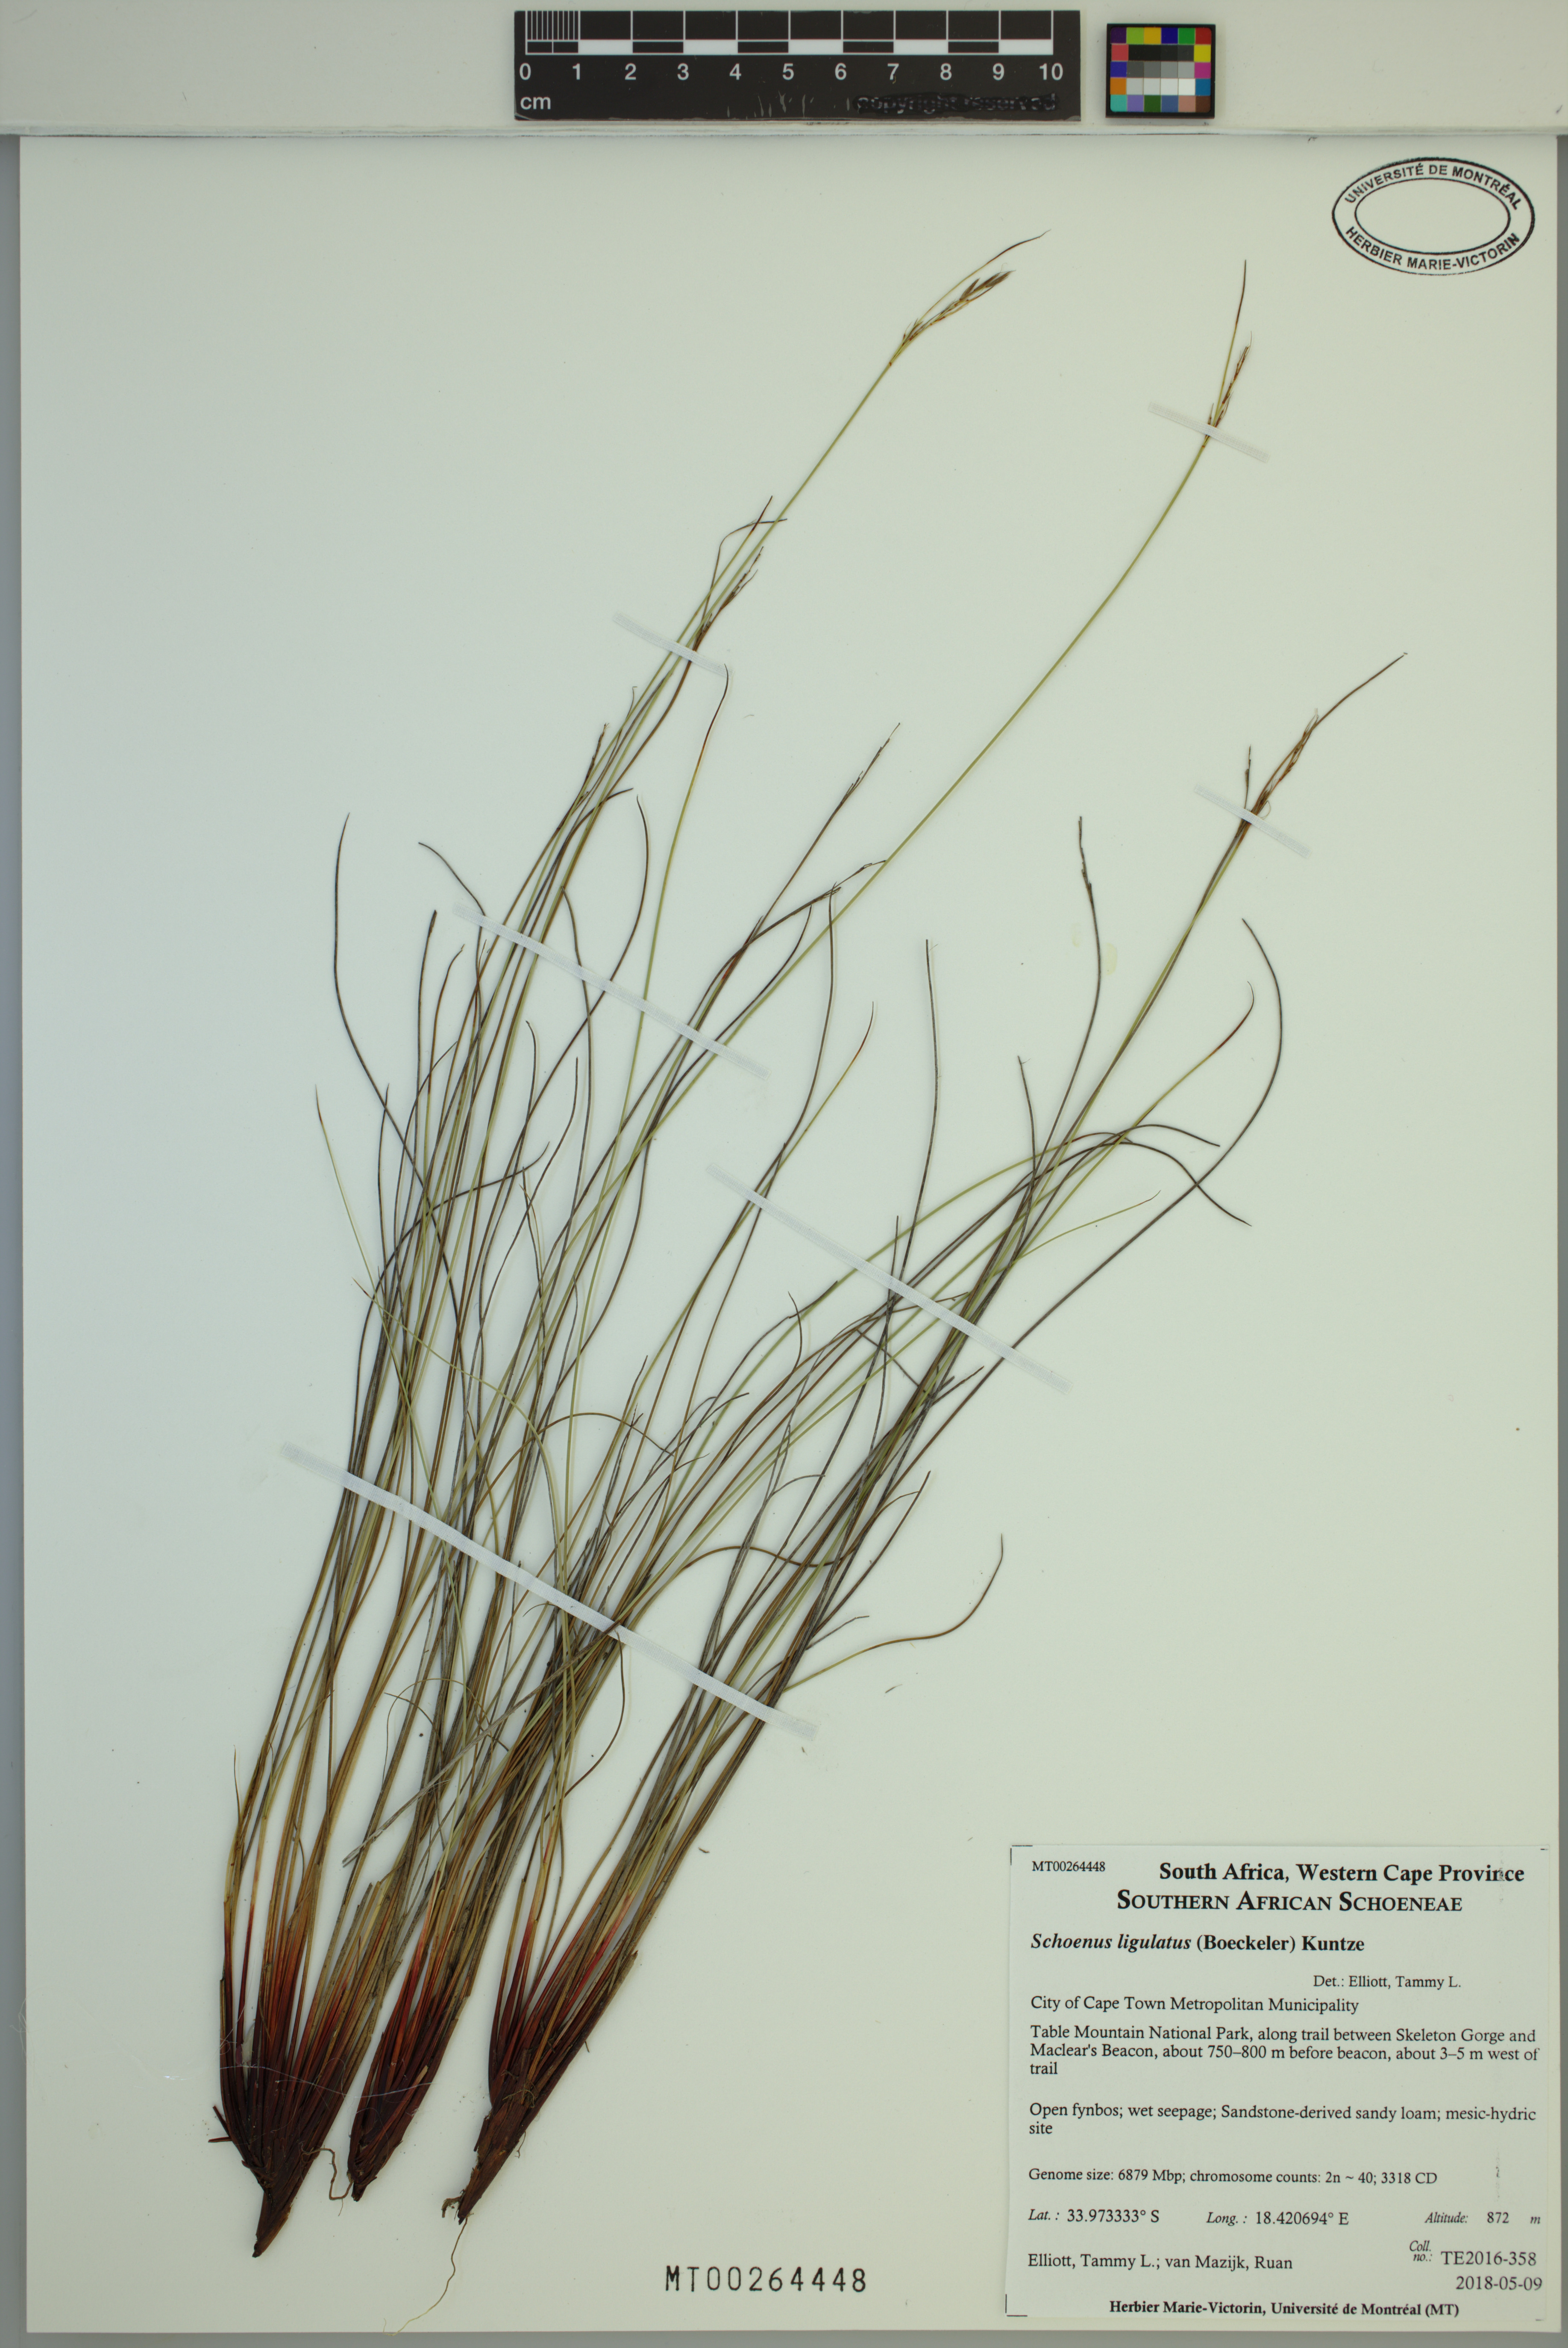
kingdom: Plantae
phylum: Tracheophyta
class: Liliopsida
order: Poales
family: Cyperaceae
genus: Schoenus
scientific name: Schoenus ligulatus
